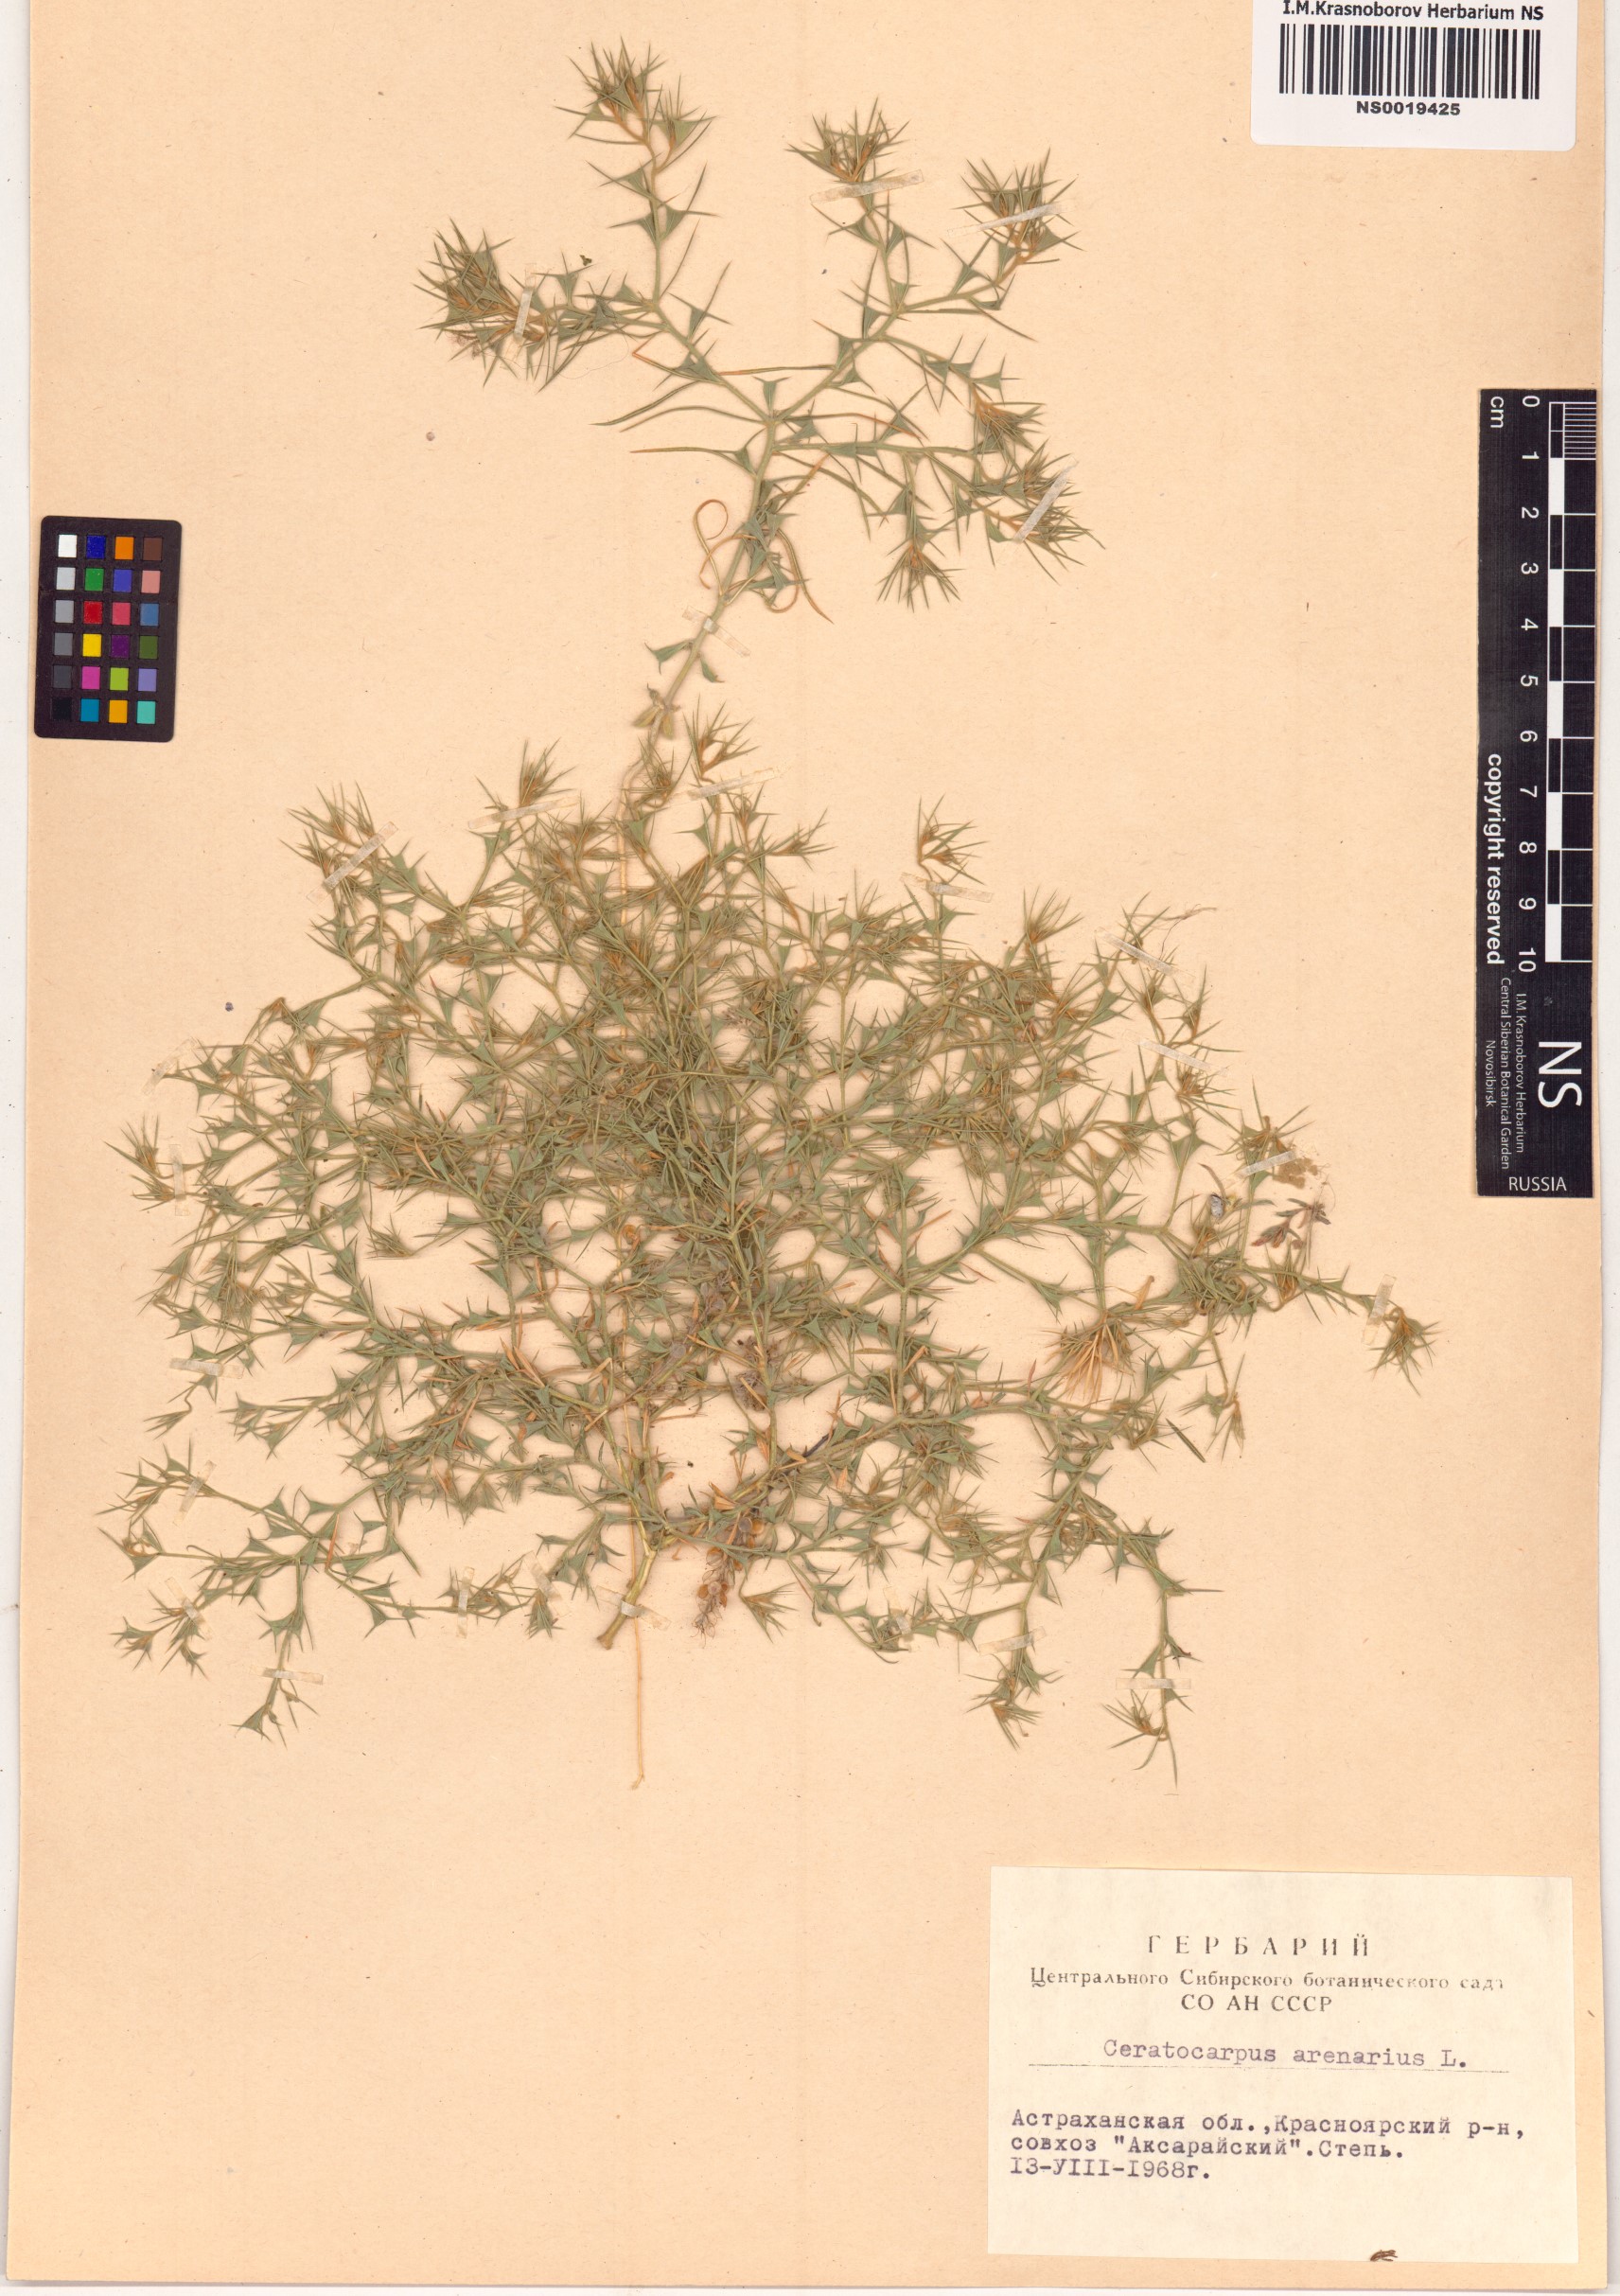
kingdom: Plantae
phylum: Tracheophyta
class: Magnoliopsida
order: Caryophyllales
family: Amaranthaceae
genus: Ceratocarpus
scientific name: Ceratocarpus arenarius
